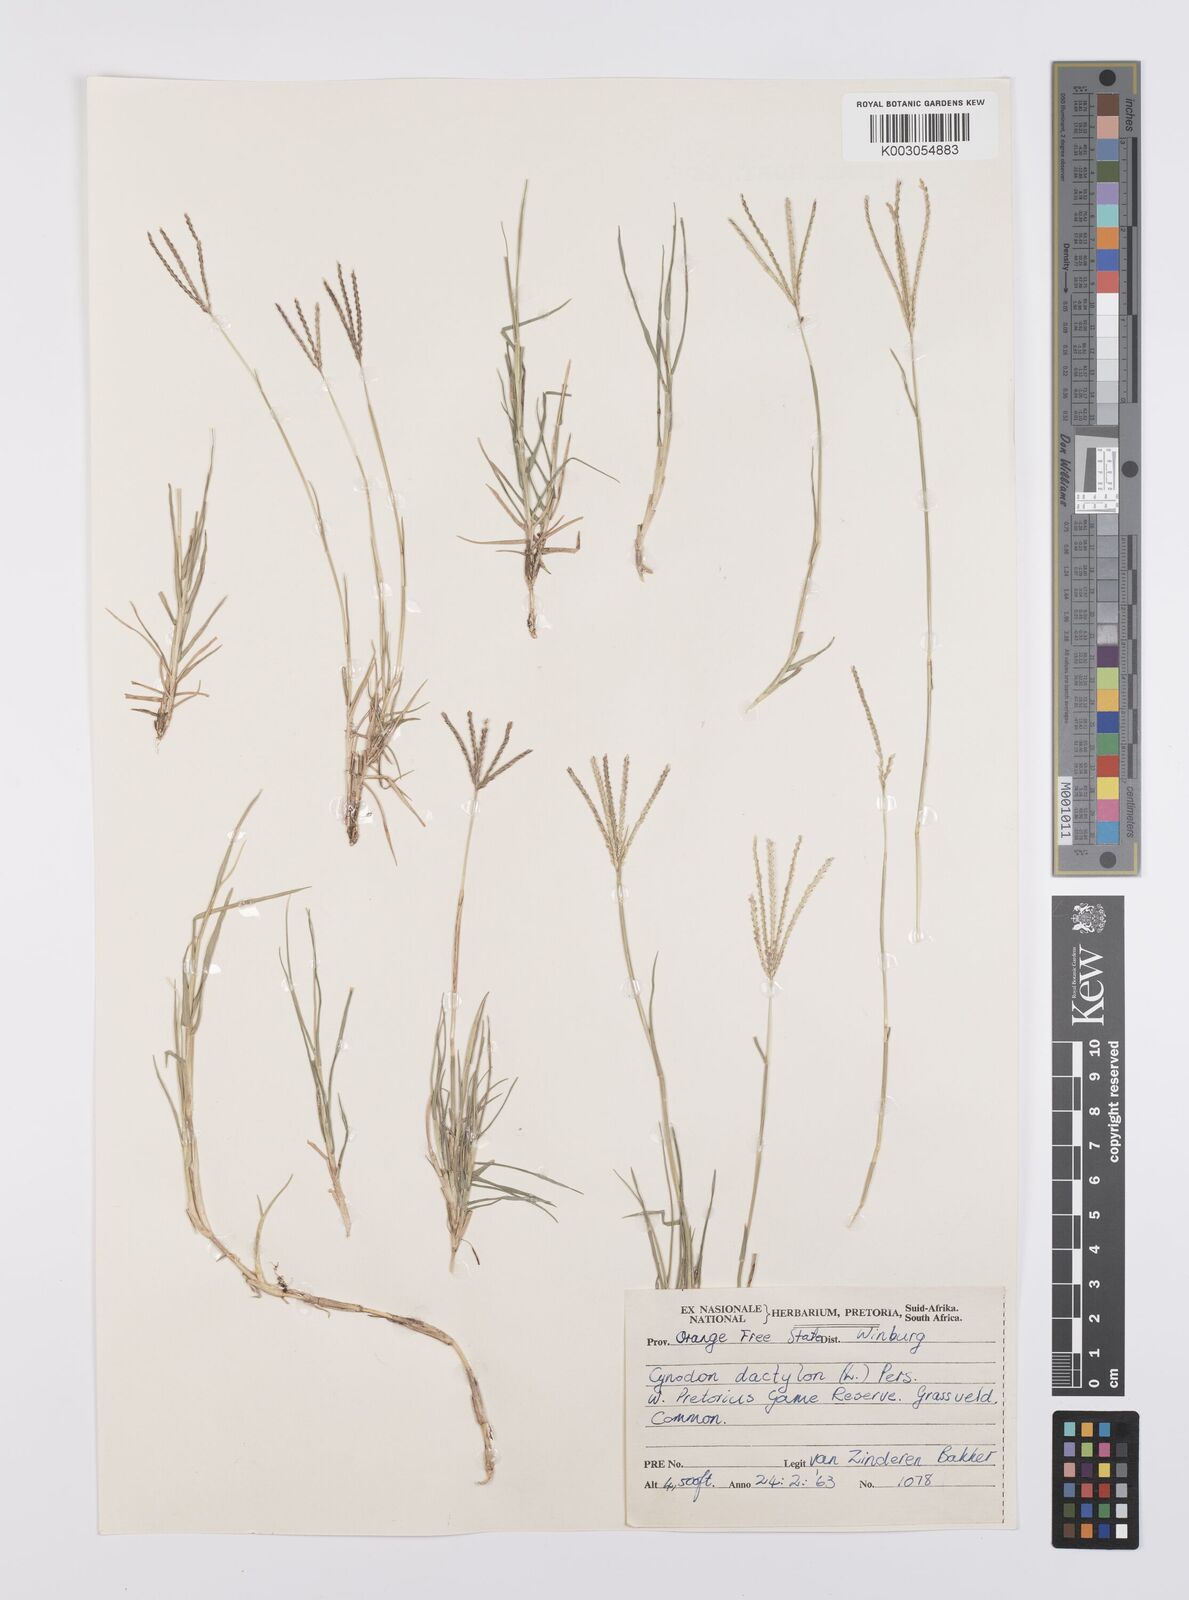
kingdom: Plantae
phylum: Tracheophyta
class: Liliopsida
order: Poales
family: Poaceae
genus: Cynodon
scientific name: Cynodon dactylon
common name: Bermuda grass
